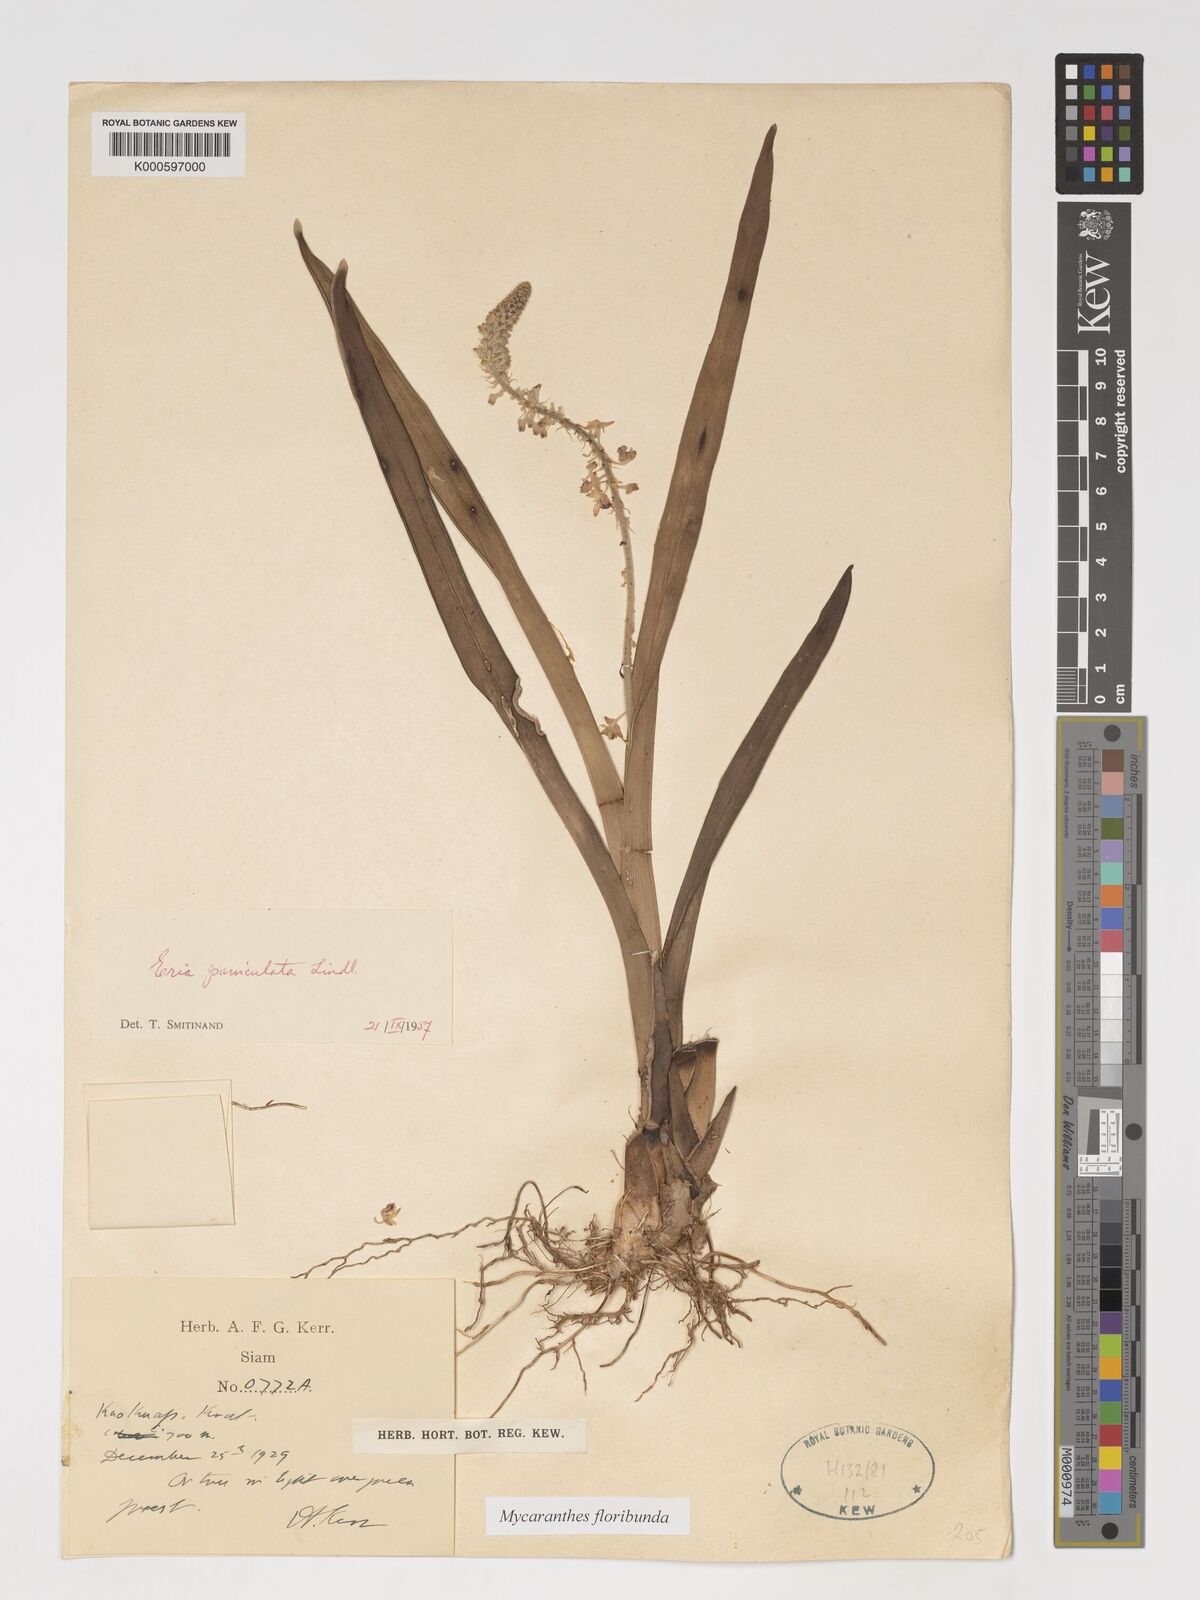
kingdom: Plantae
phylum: Tracheophyta
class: Liliopsida
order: Asparagales
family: Orchidaceae
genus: Mycaranthes
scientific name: Mycaranthes floribunda
